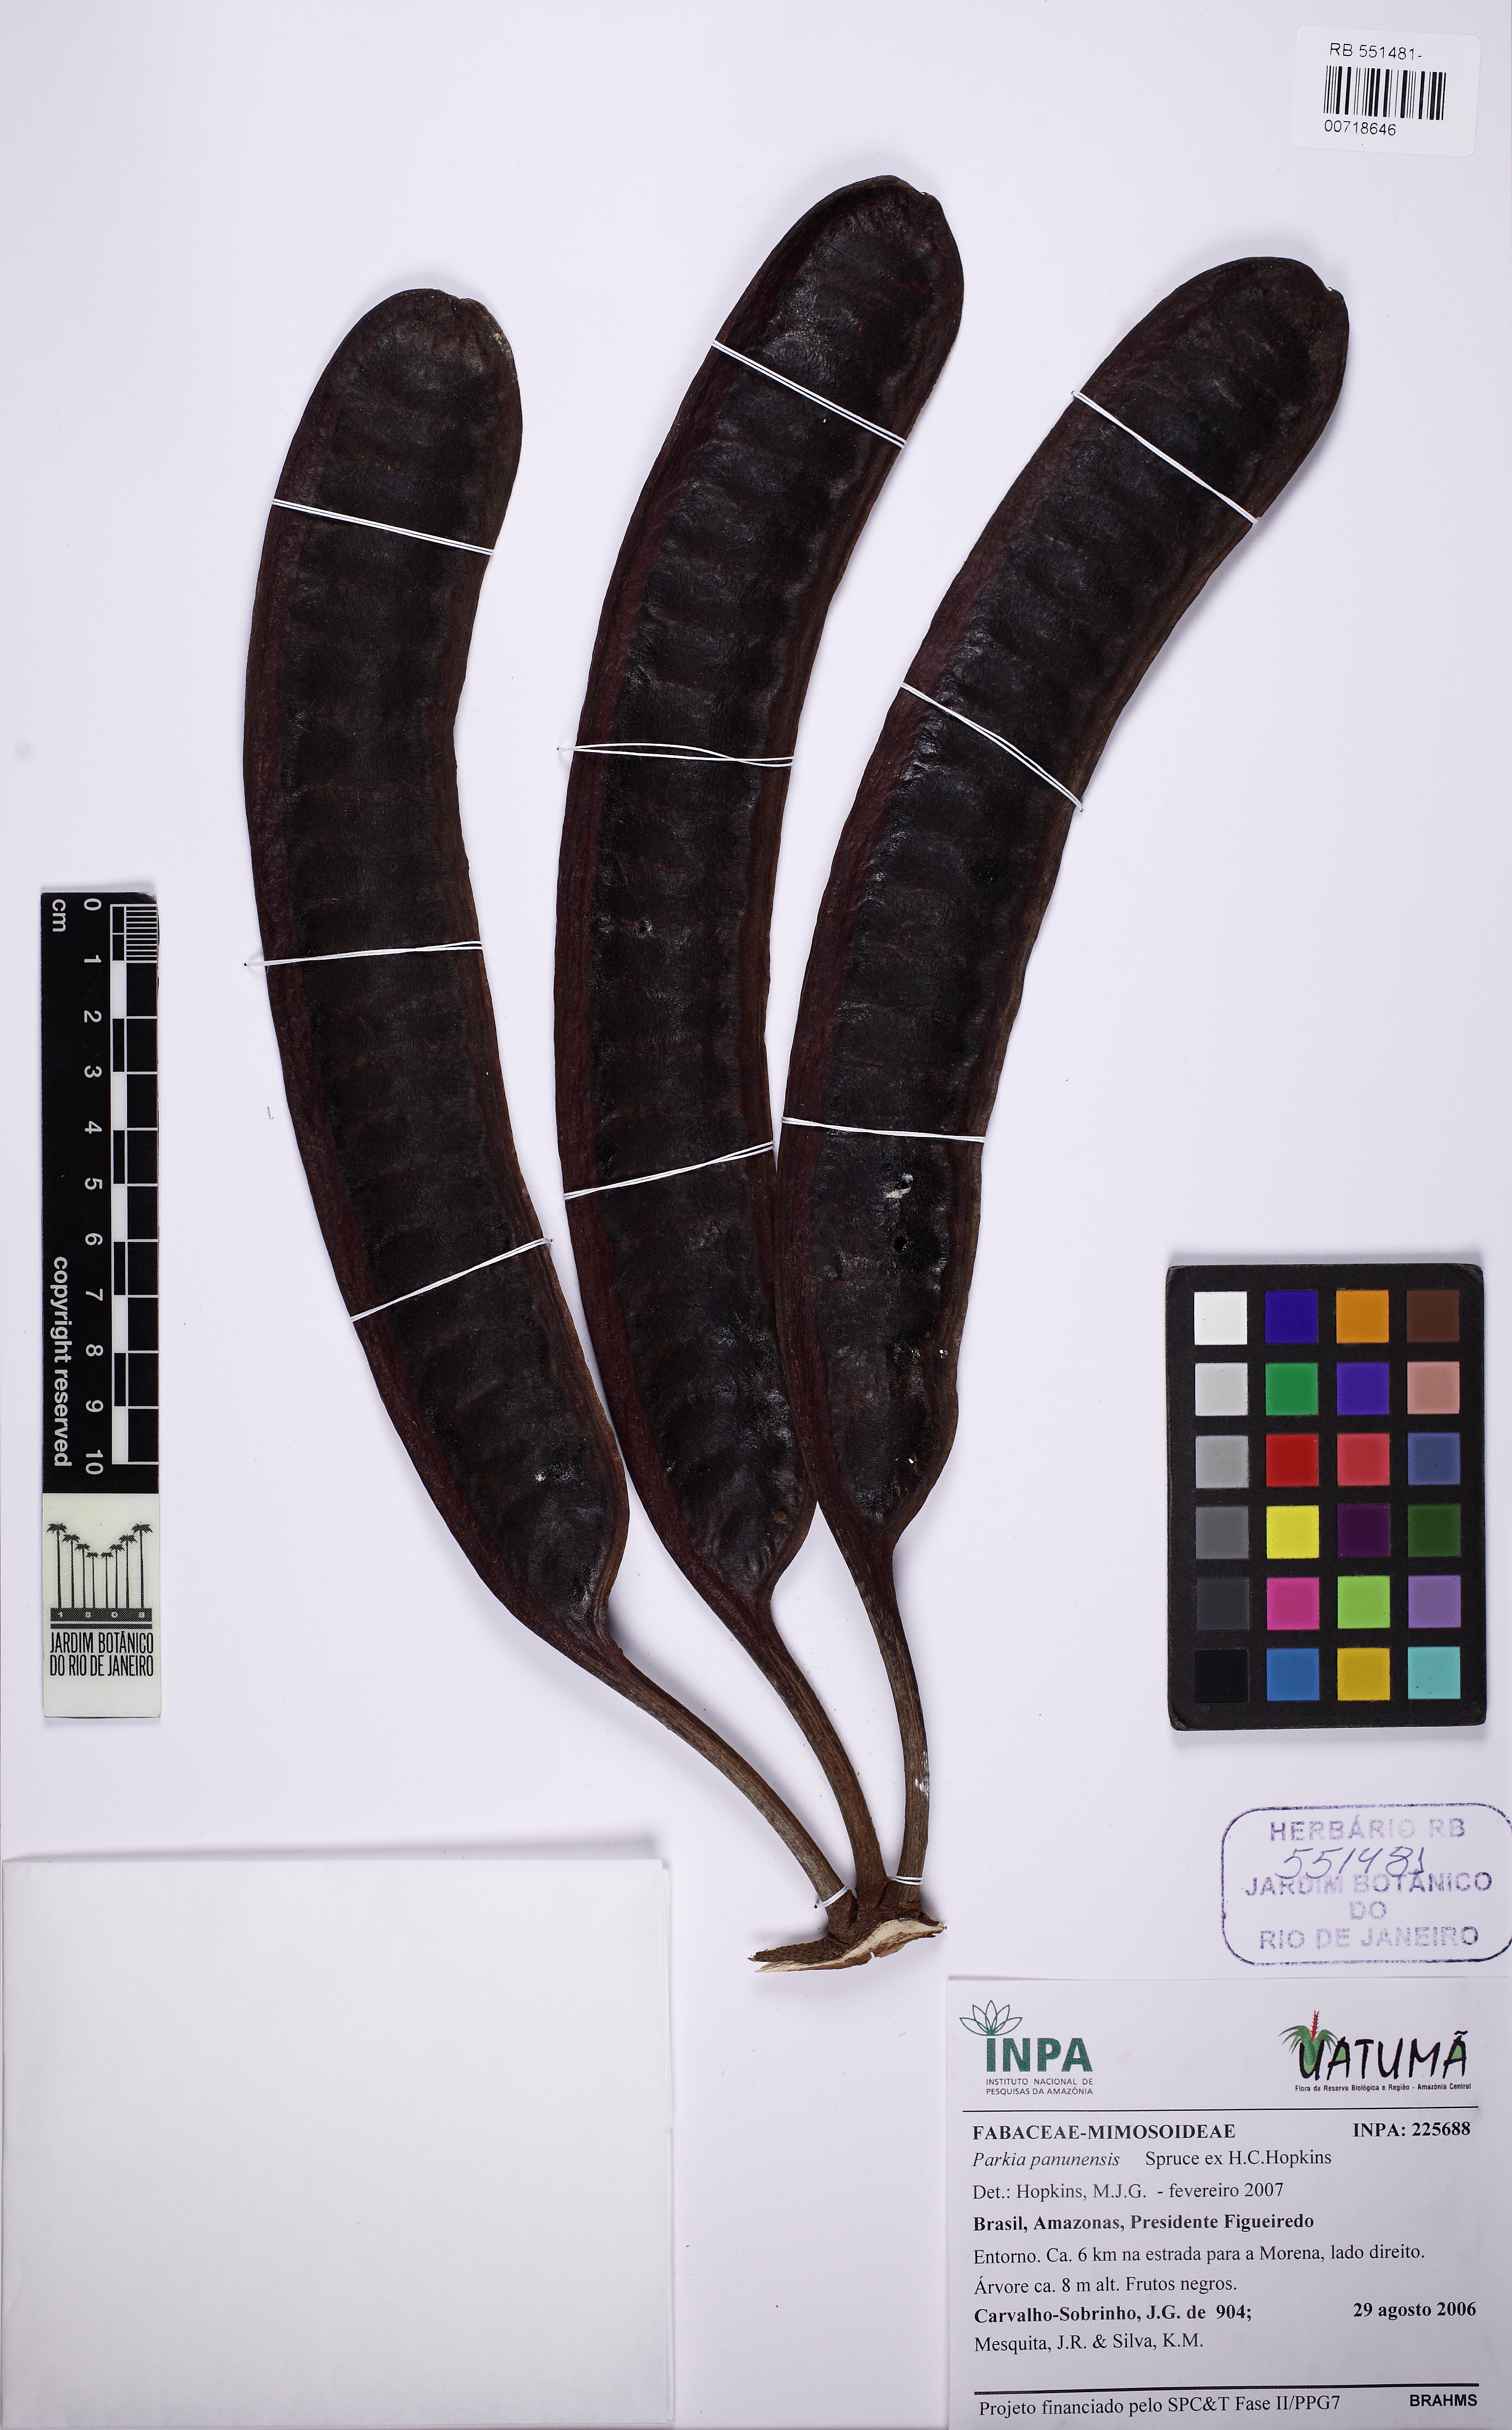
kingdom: Plantae
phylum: Tracheophyta
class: Magnoliopsida
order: Fabales
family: Fabaceae
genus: Parkia
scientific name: Parkia pectinata
